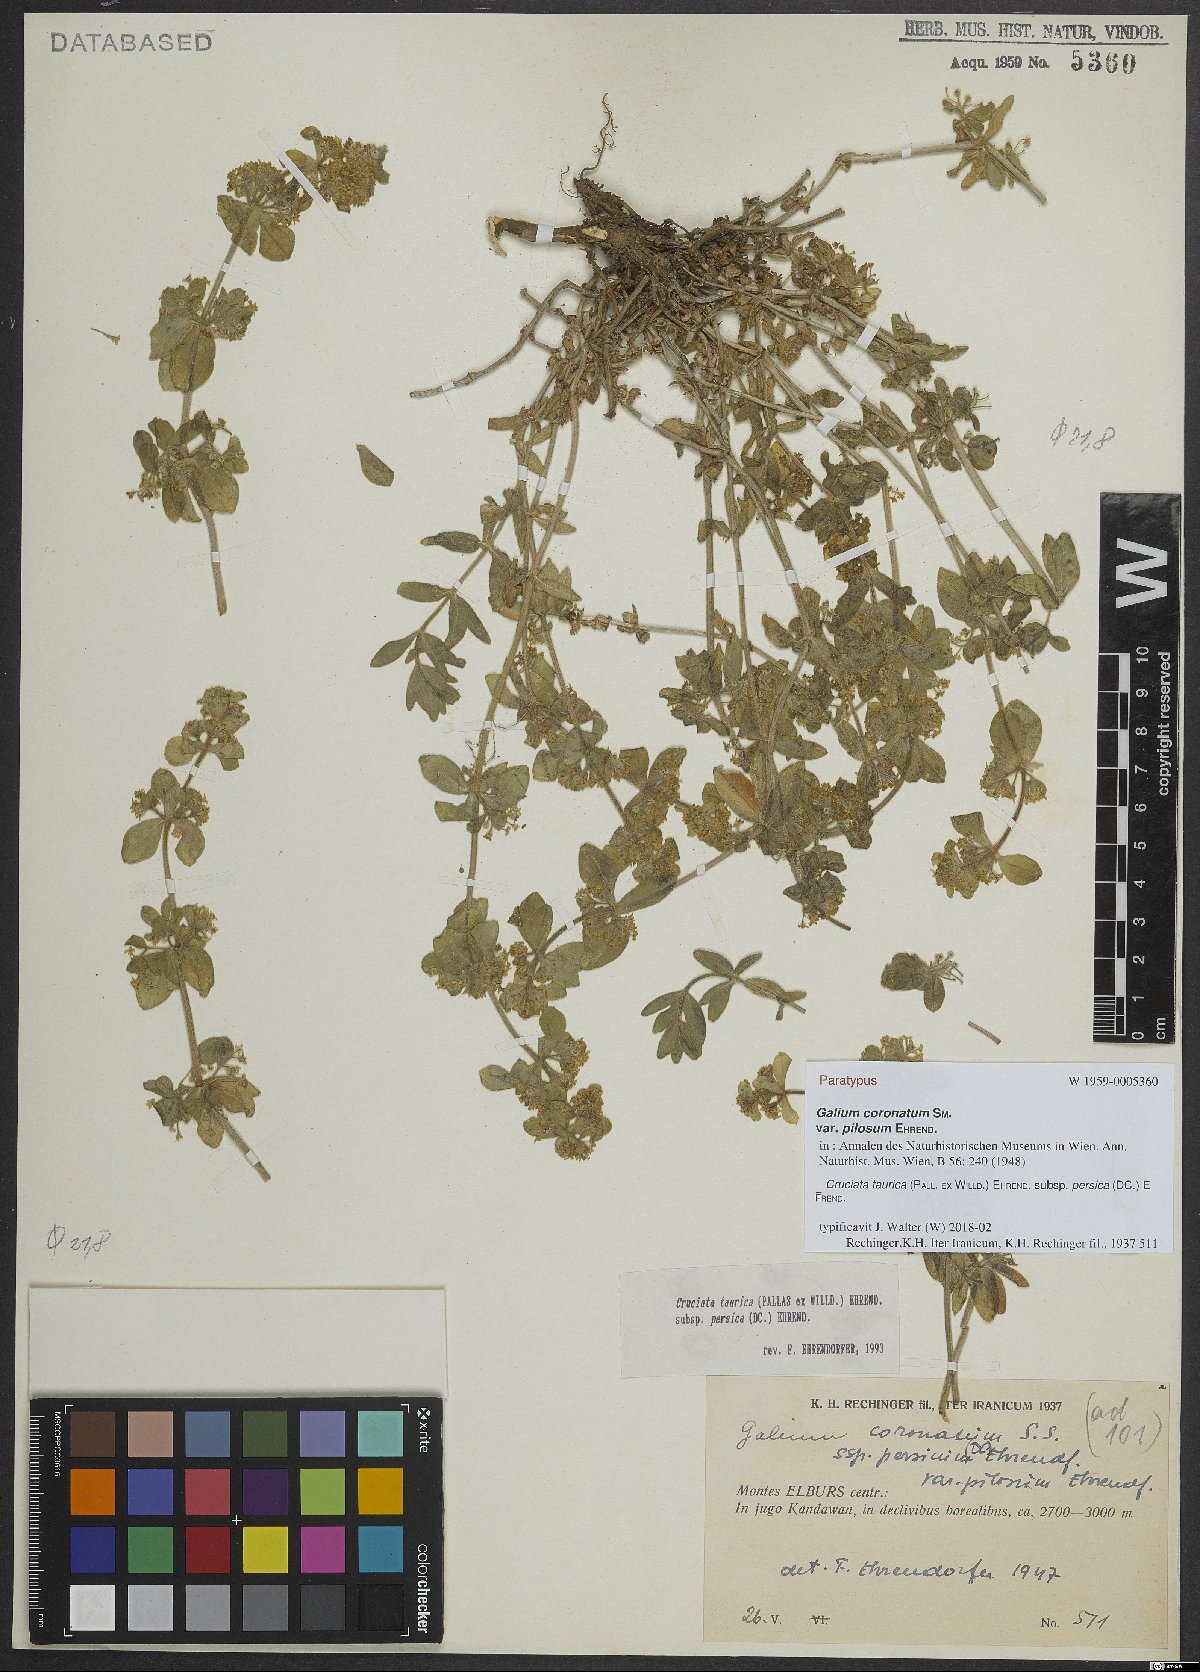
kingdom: Plantae
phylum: Tracheophyta
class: Magnoliopsida
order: Gentianales
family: Rubiaceae
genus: Cruciata
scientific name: Cruciata taurica
